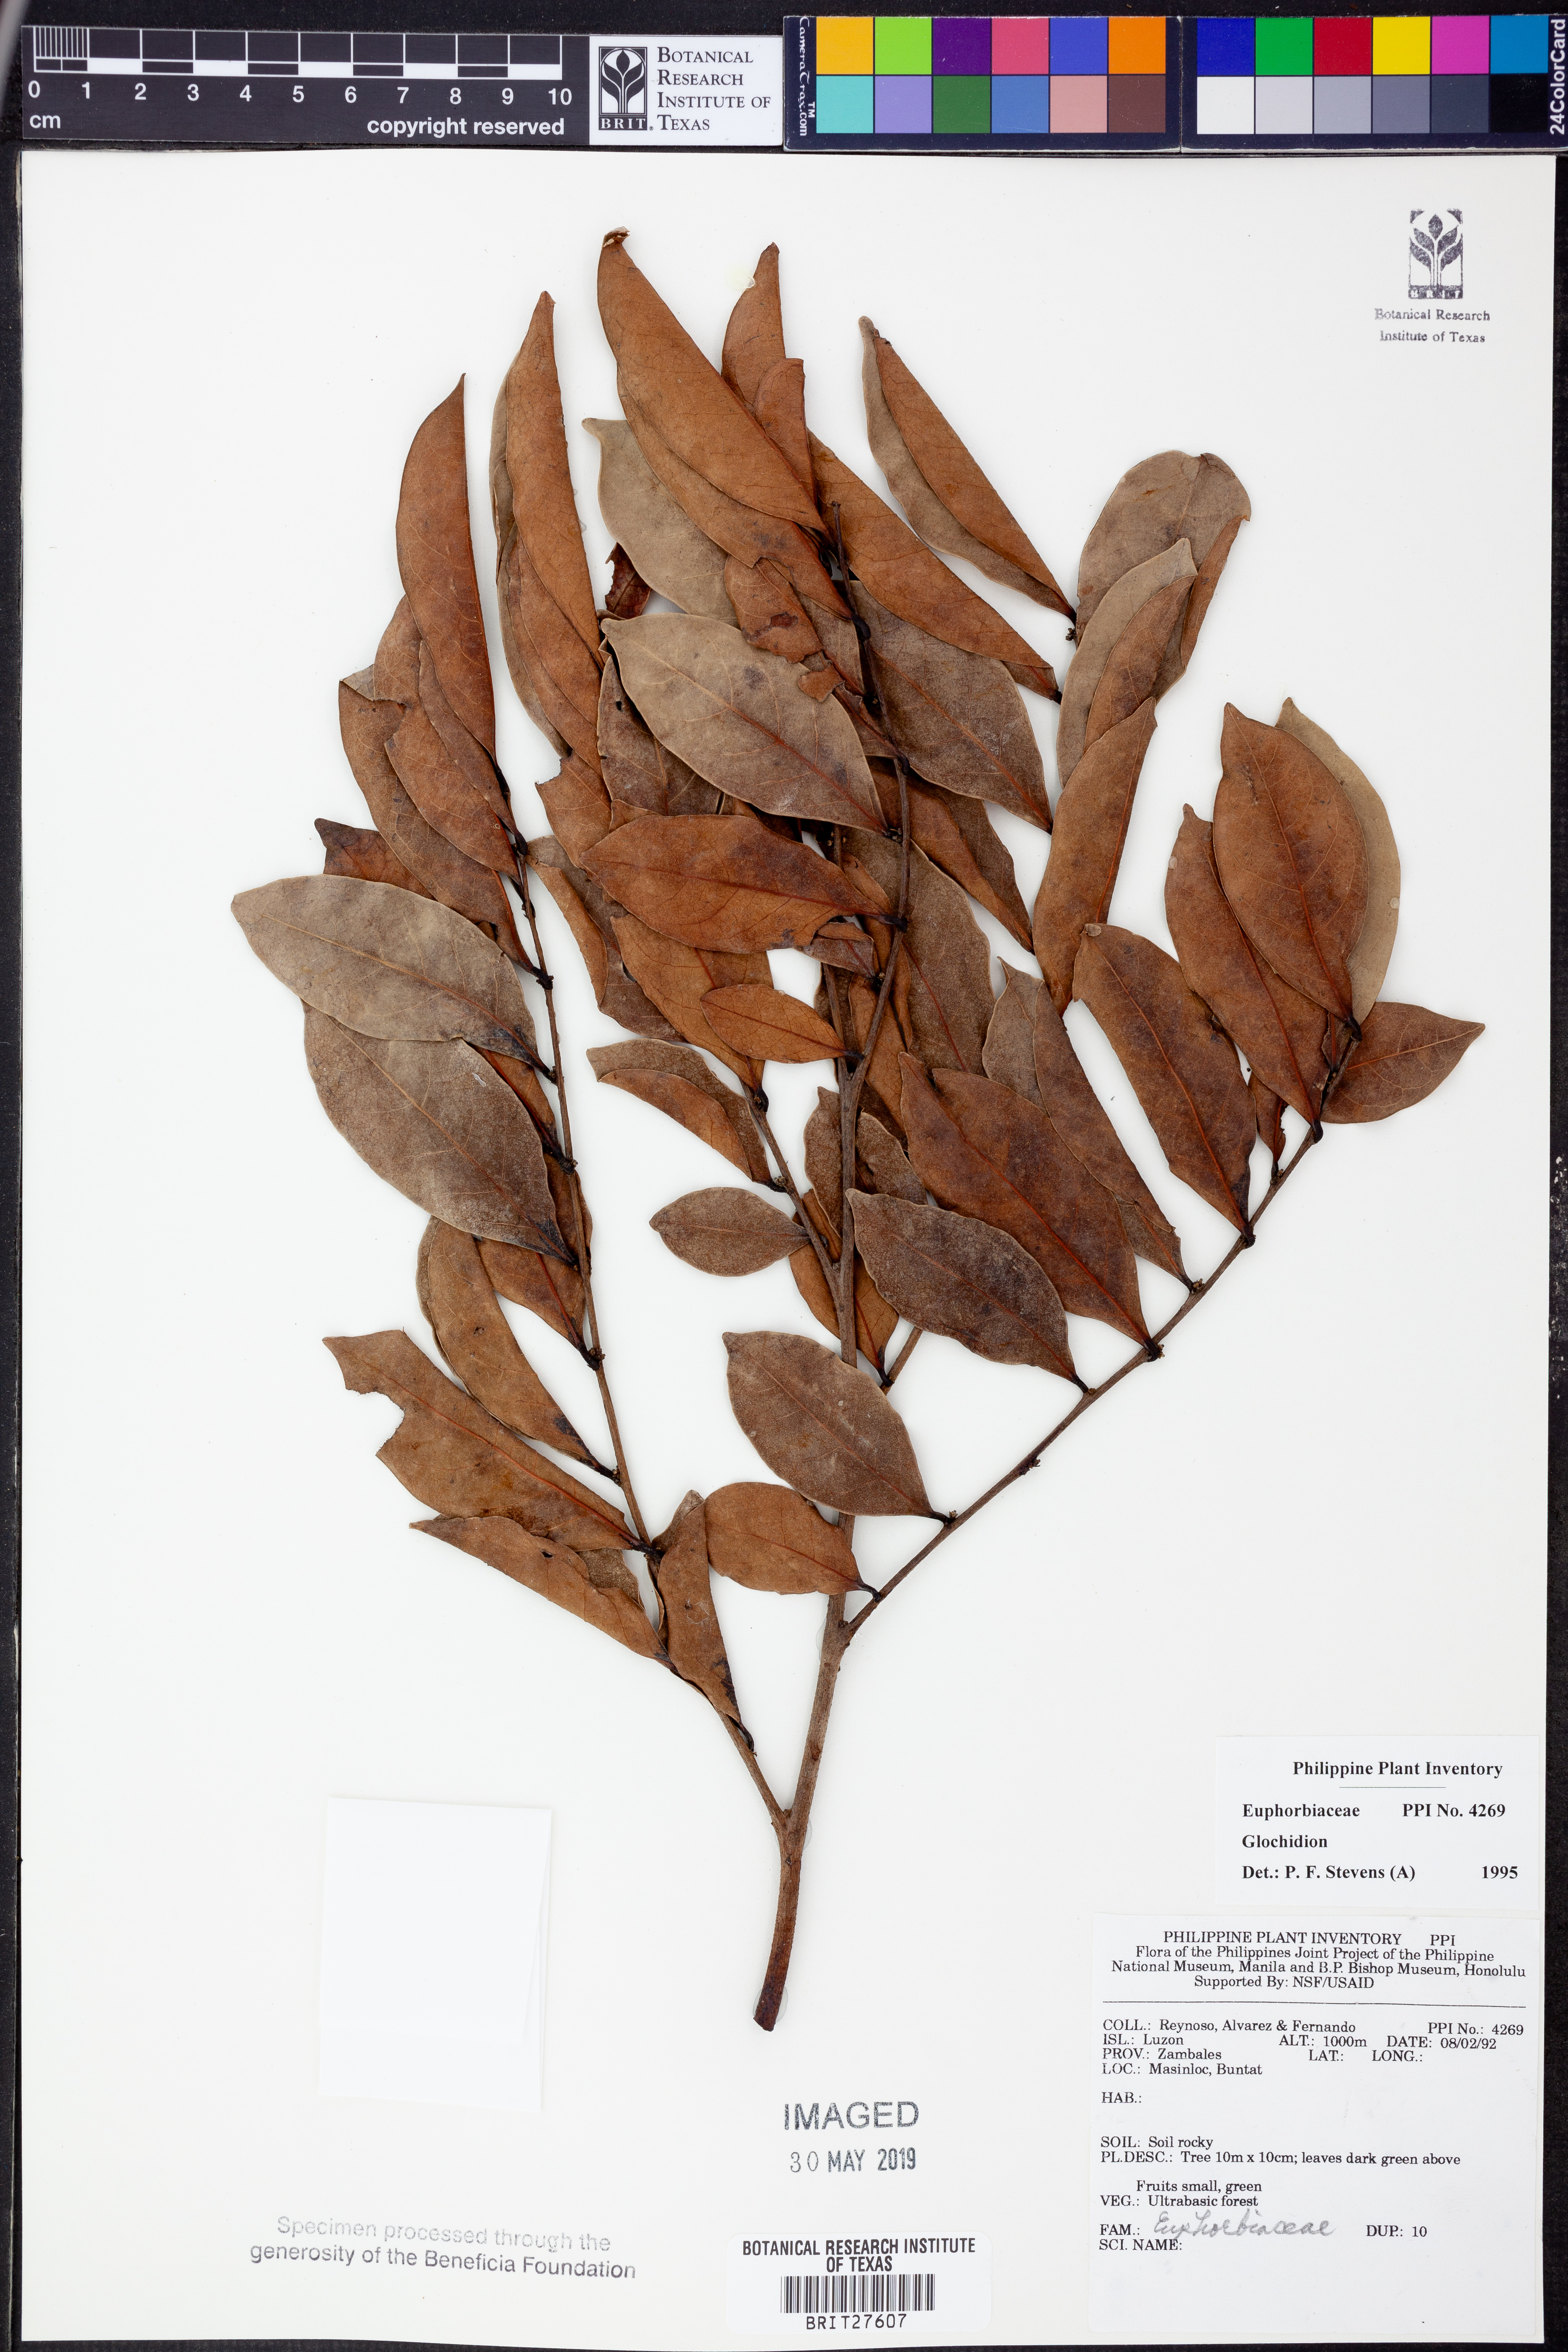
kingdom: Plantae
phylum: Tracheophyta
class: Magnoliopsida
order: Malpighiales
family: Phyllanthaceae
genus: Glochidion
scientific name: Glochidion
